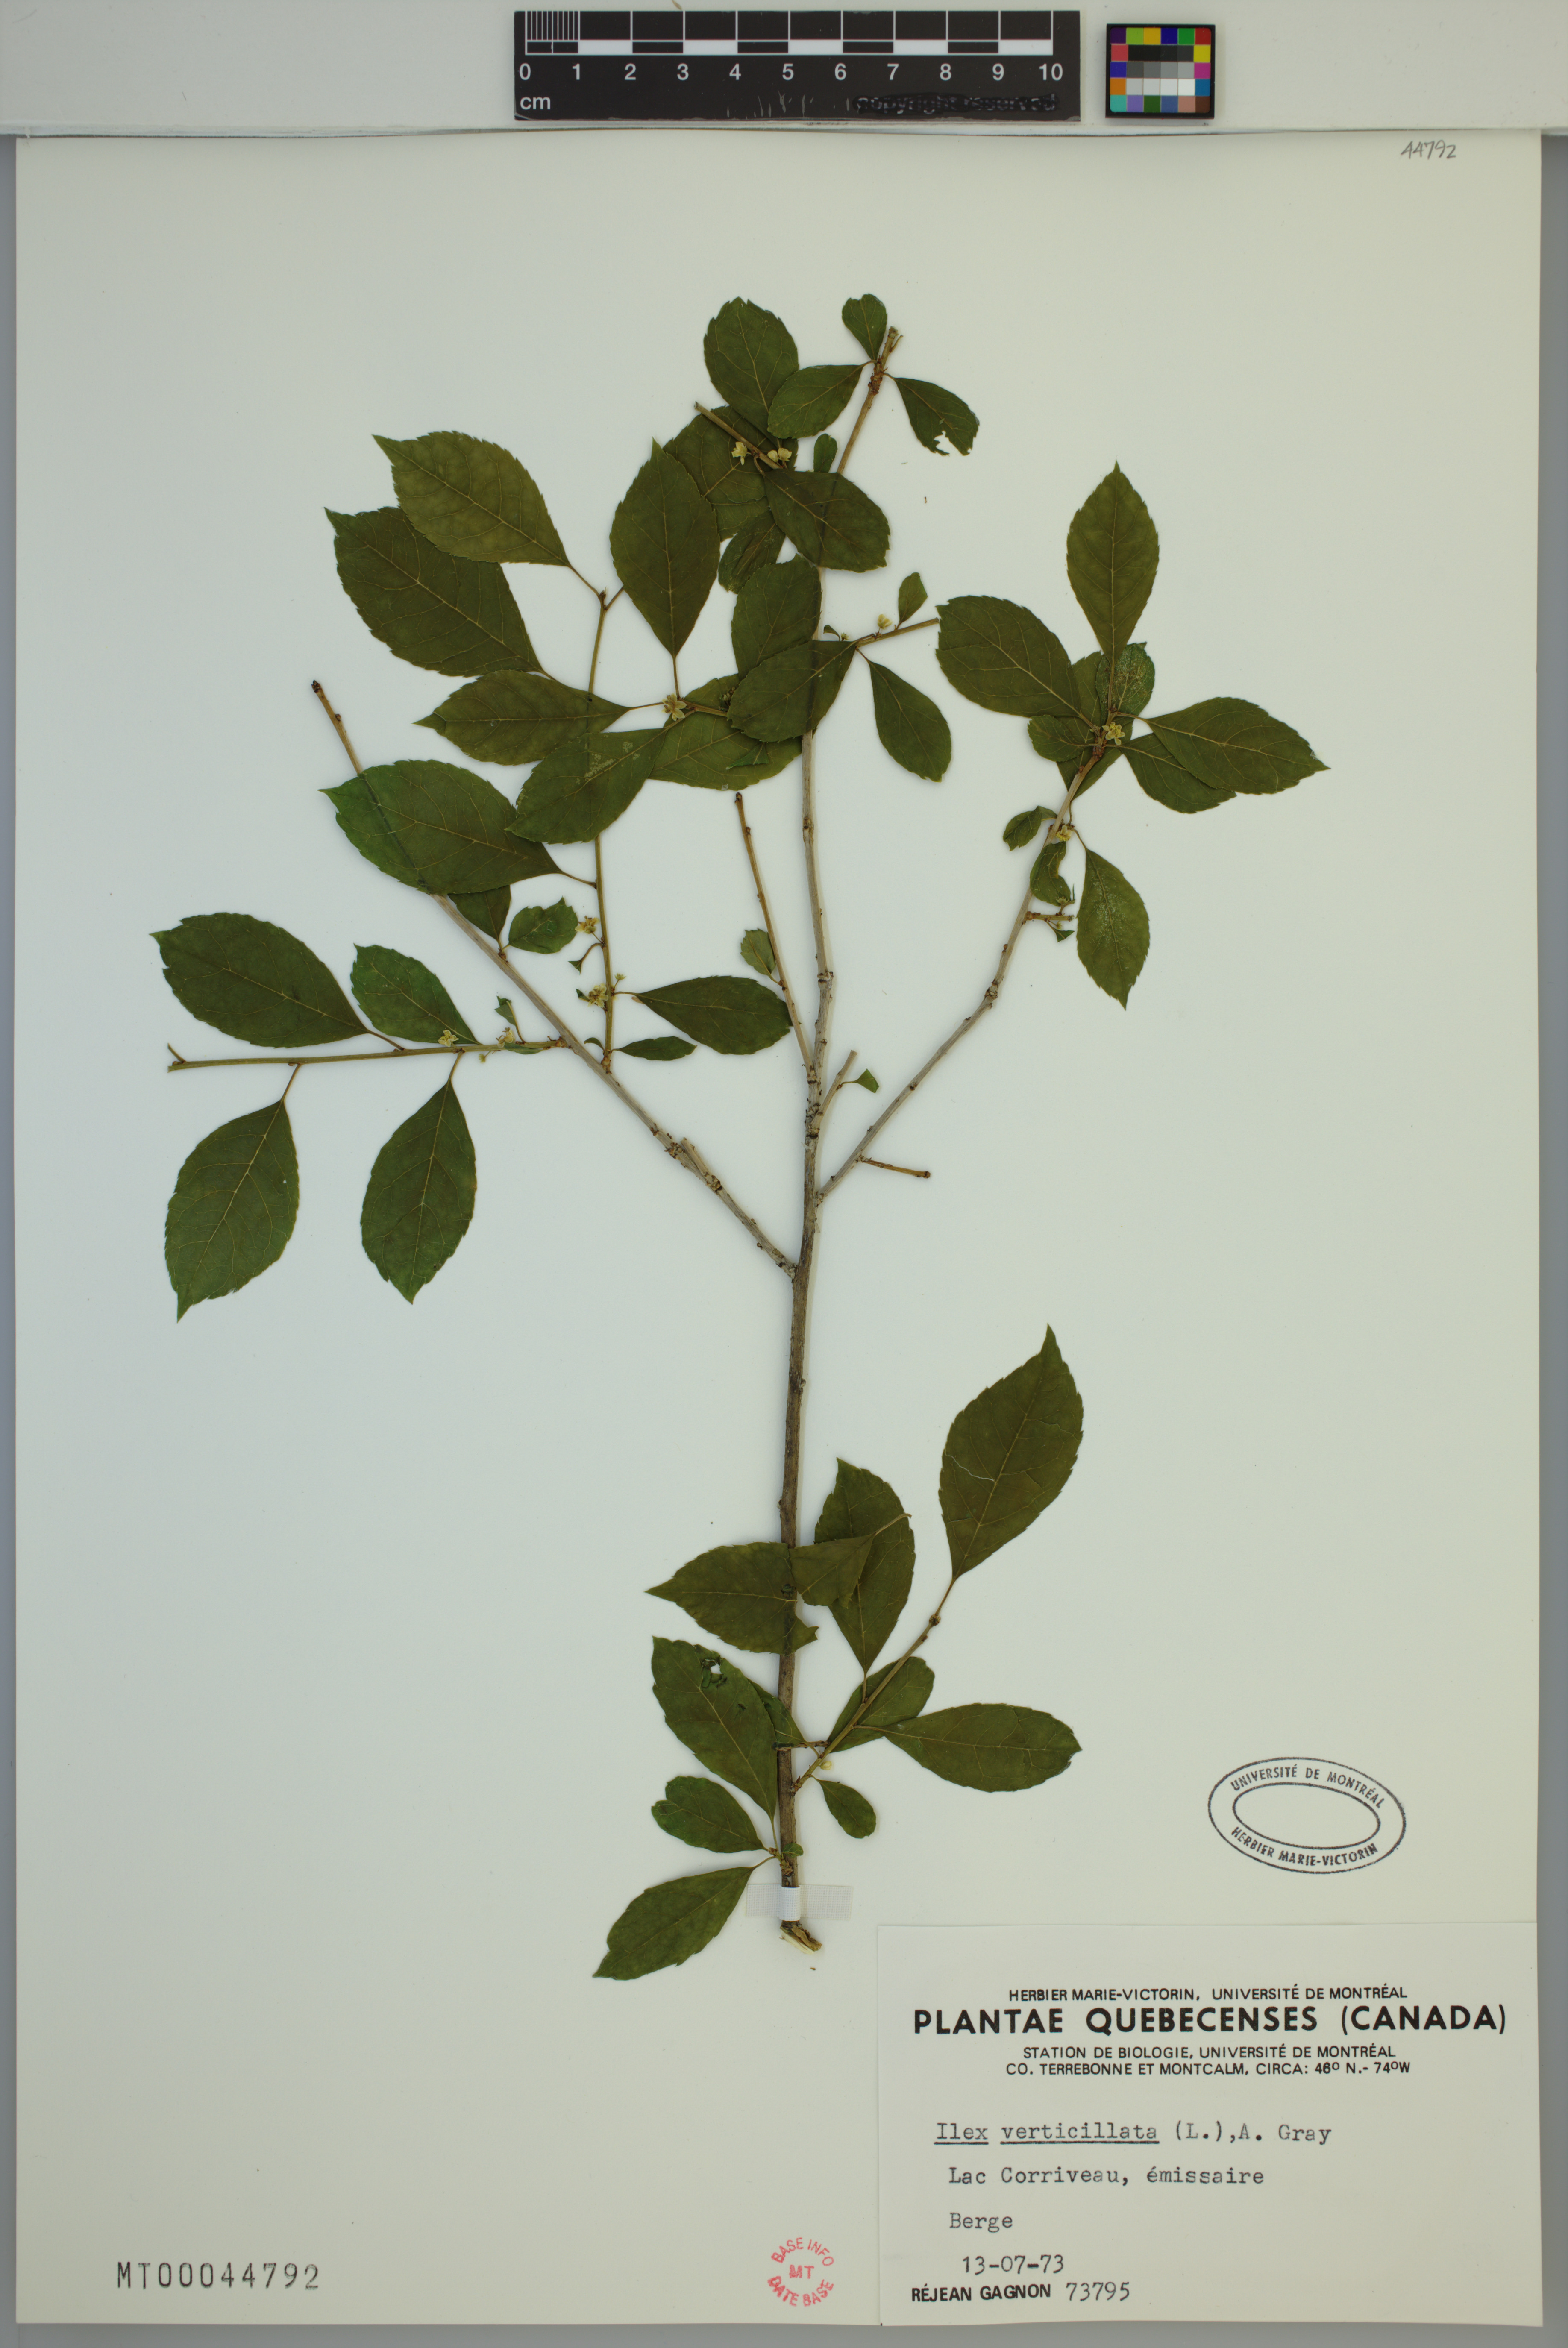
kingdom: Plantae
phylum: Tracheophyta
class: Magnoliopsida
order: Aquifoliales
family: Aquifoliaceae
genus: Ilex
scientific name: Ilex verticillata
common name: Virginia winterberry
